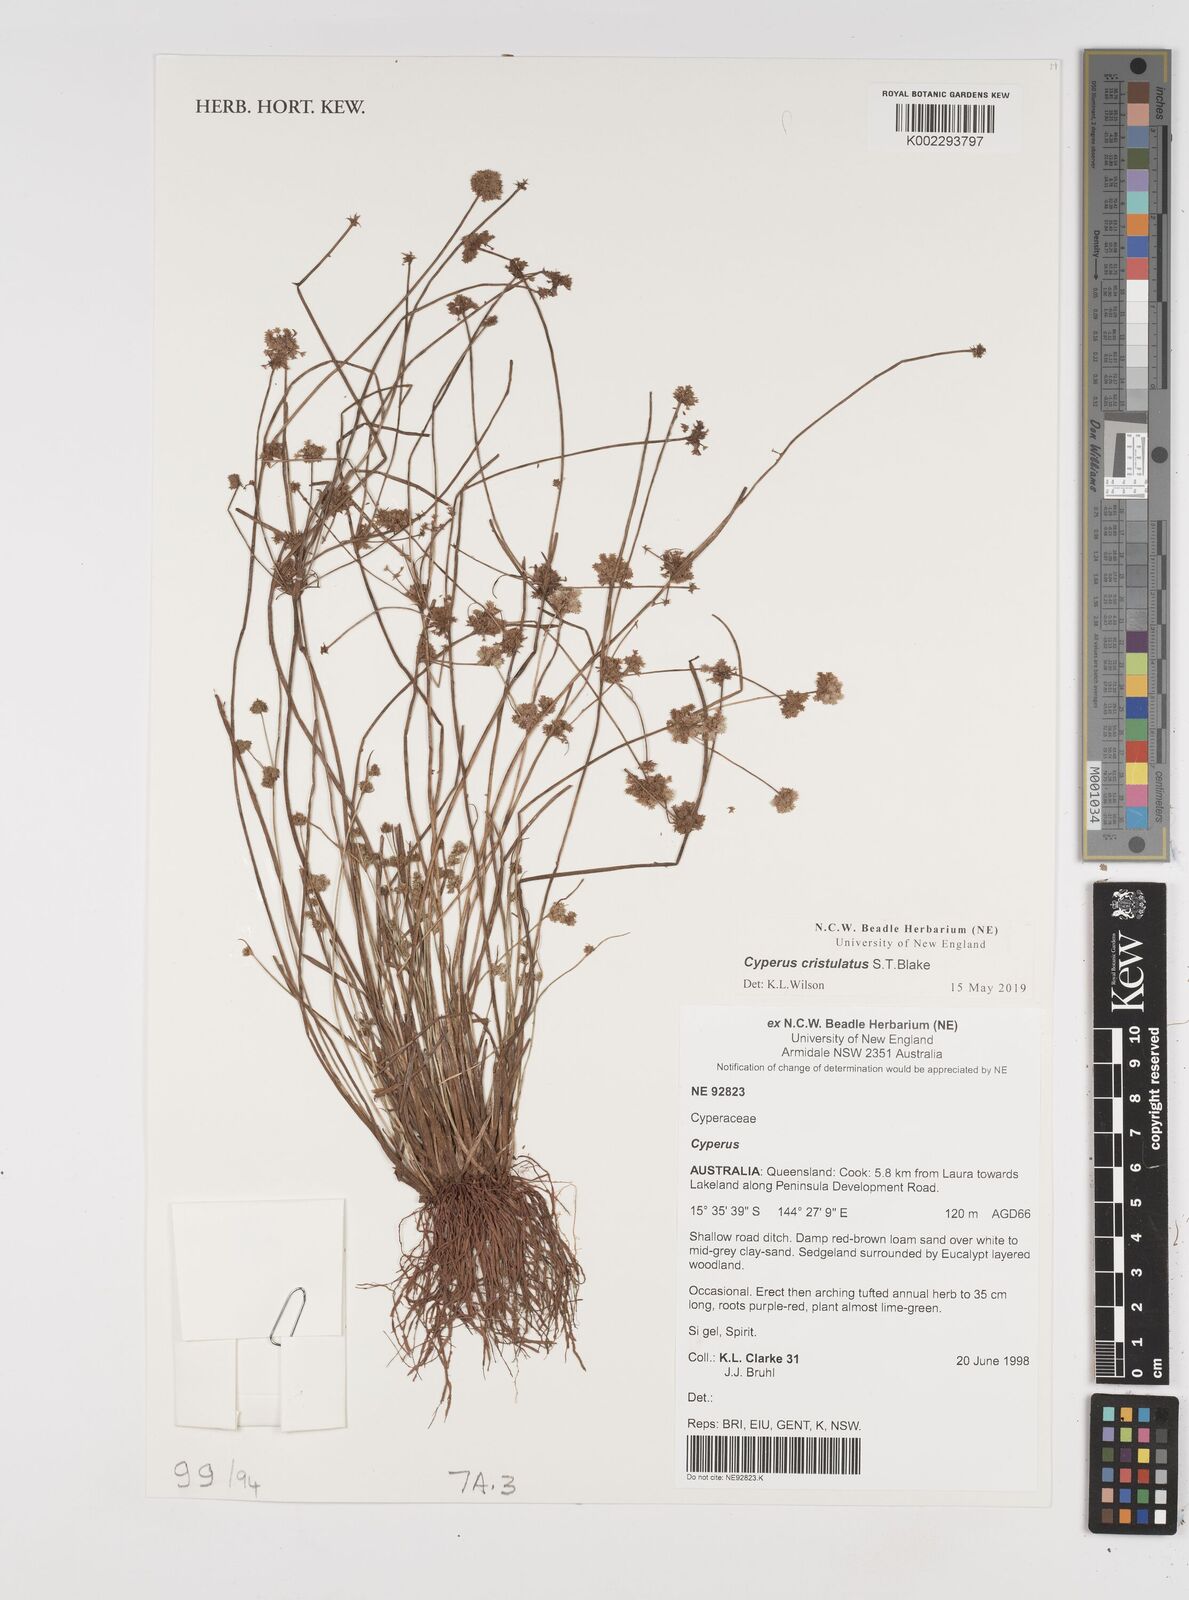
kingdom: Plantae
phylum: Tracheophyta
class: Liliopsida
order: Poales
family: Cyperaceae
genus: Cyperus
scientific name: Cyperus cristulatus
